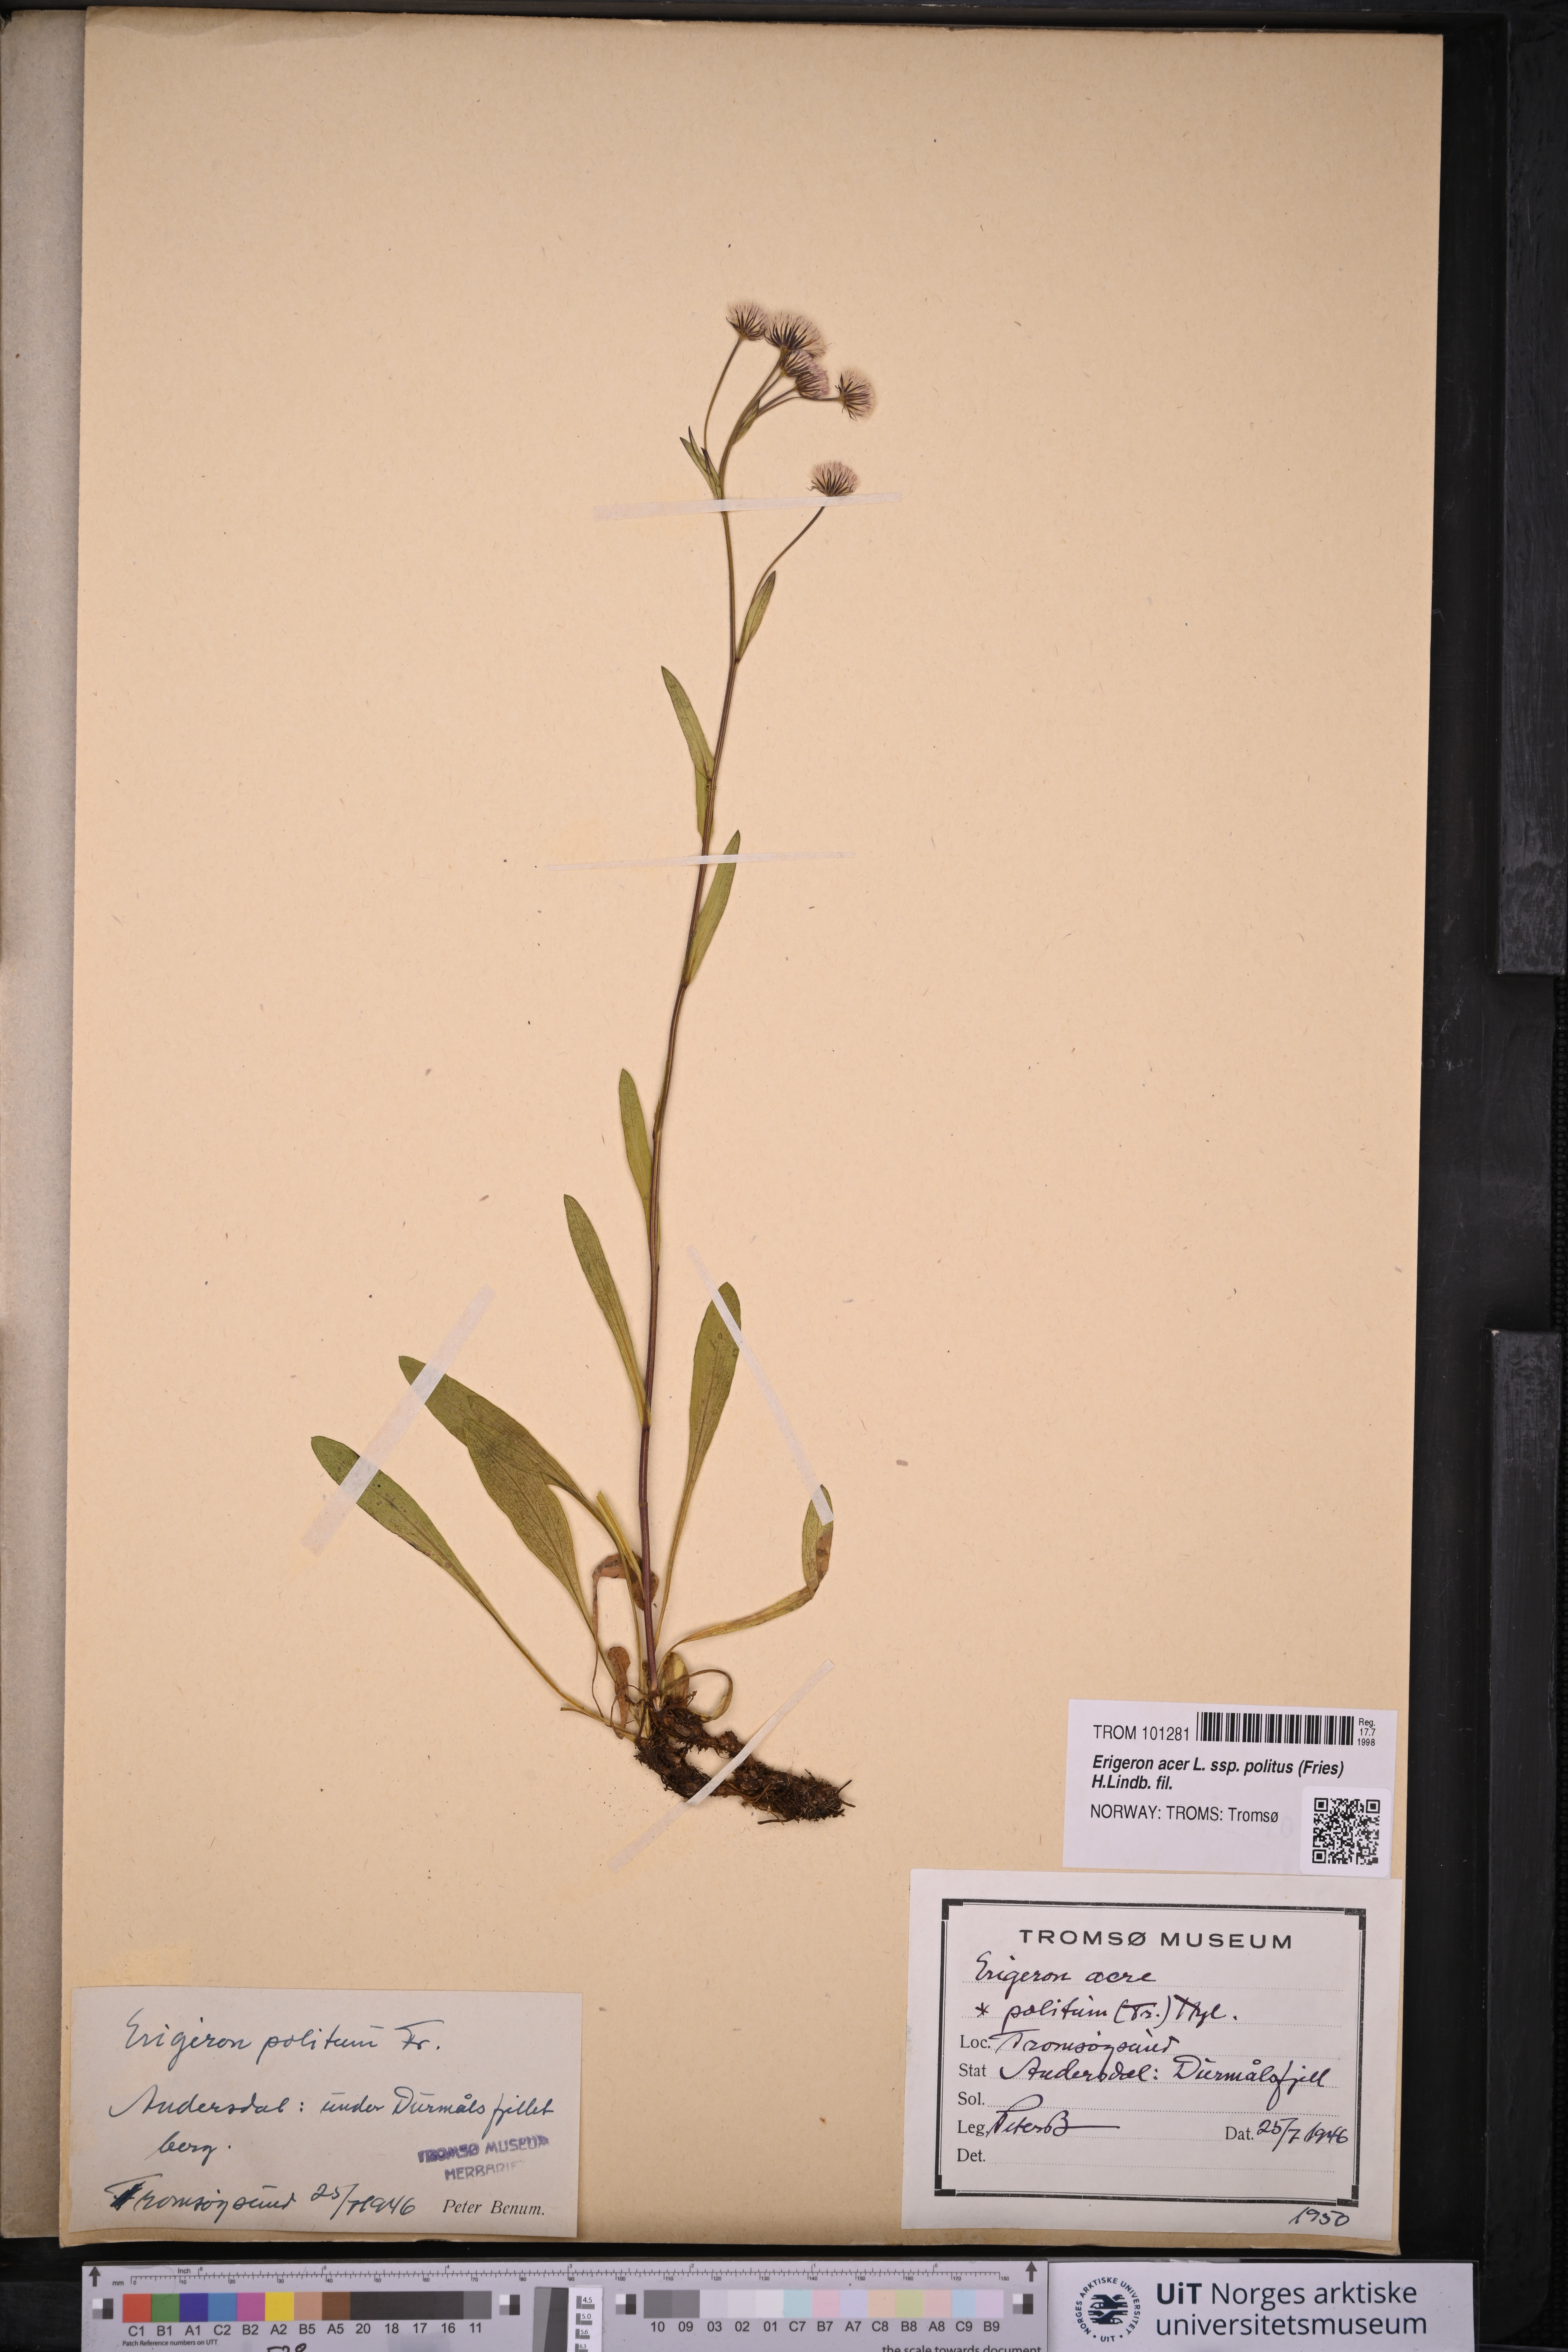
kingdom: Plantae
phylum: Tracheophyta
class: Magnoliopsida
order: Asterales
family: Asteraceae
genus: Erigeron
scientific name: Erigeron politus
